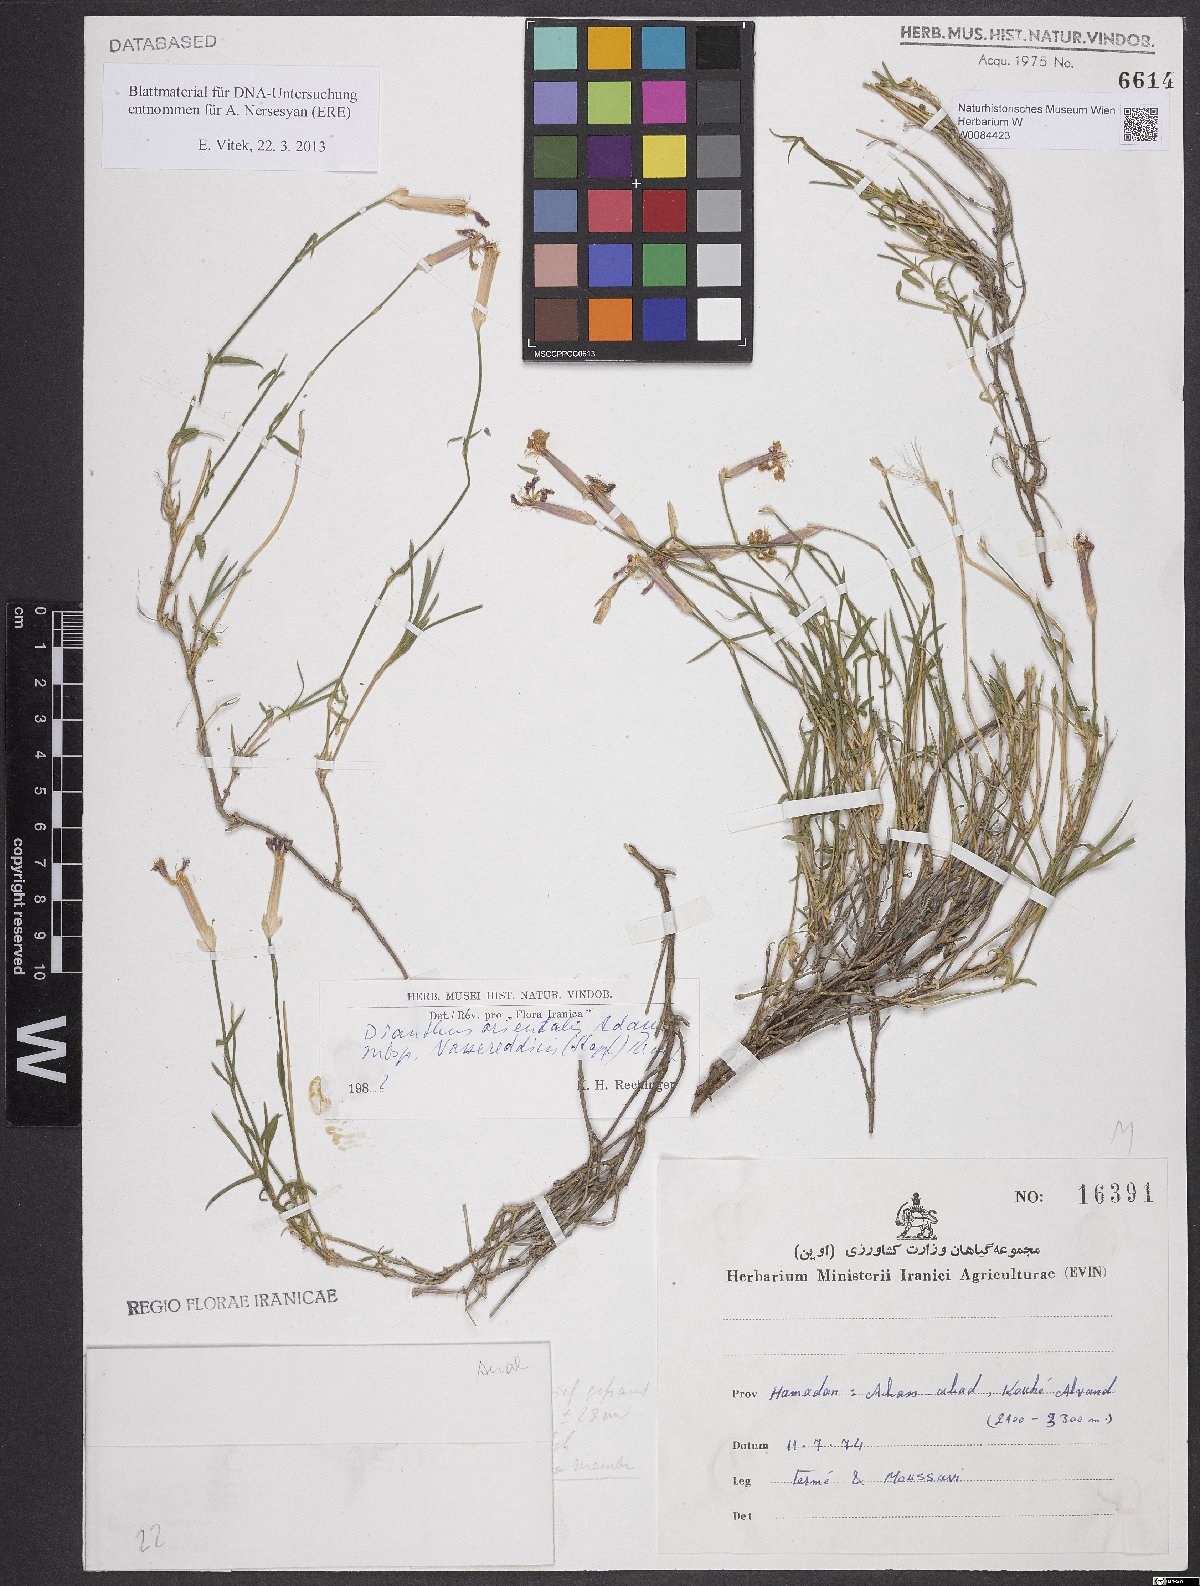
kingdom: Plantae
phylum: Tracheophyta
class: Magnoliopsida
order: Caryophyllales
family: Caryophyllaceae
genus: Dianthus
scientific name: Dianthus orientalis
